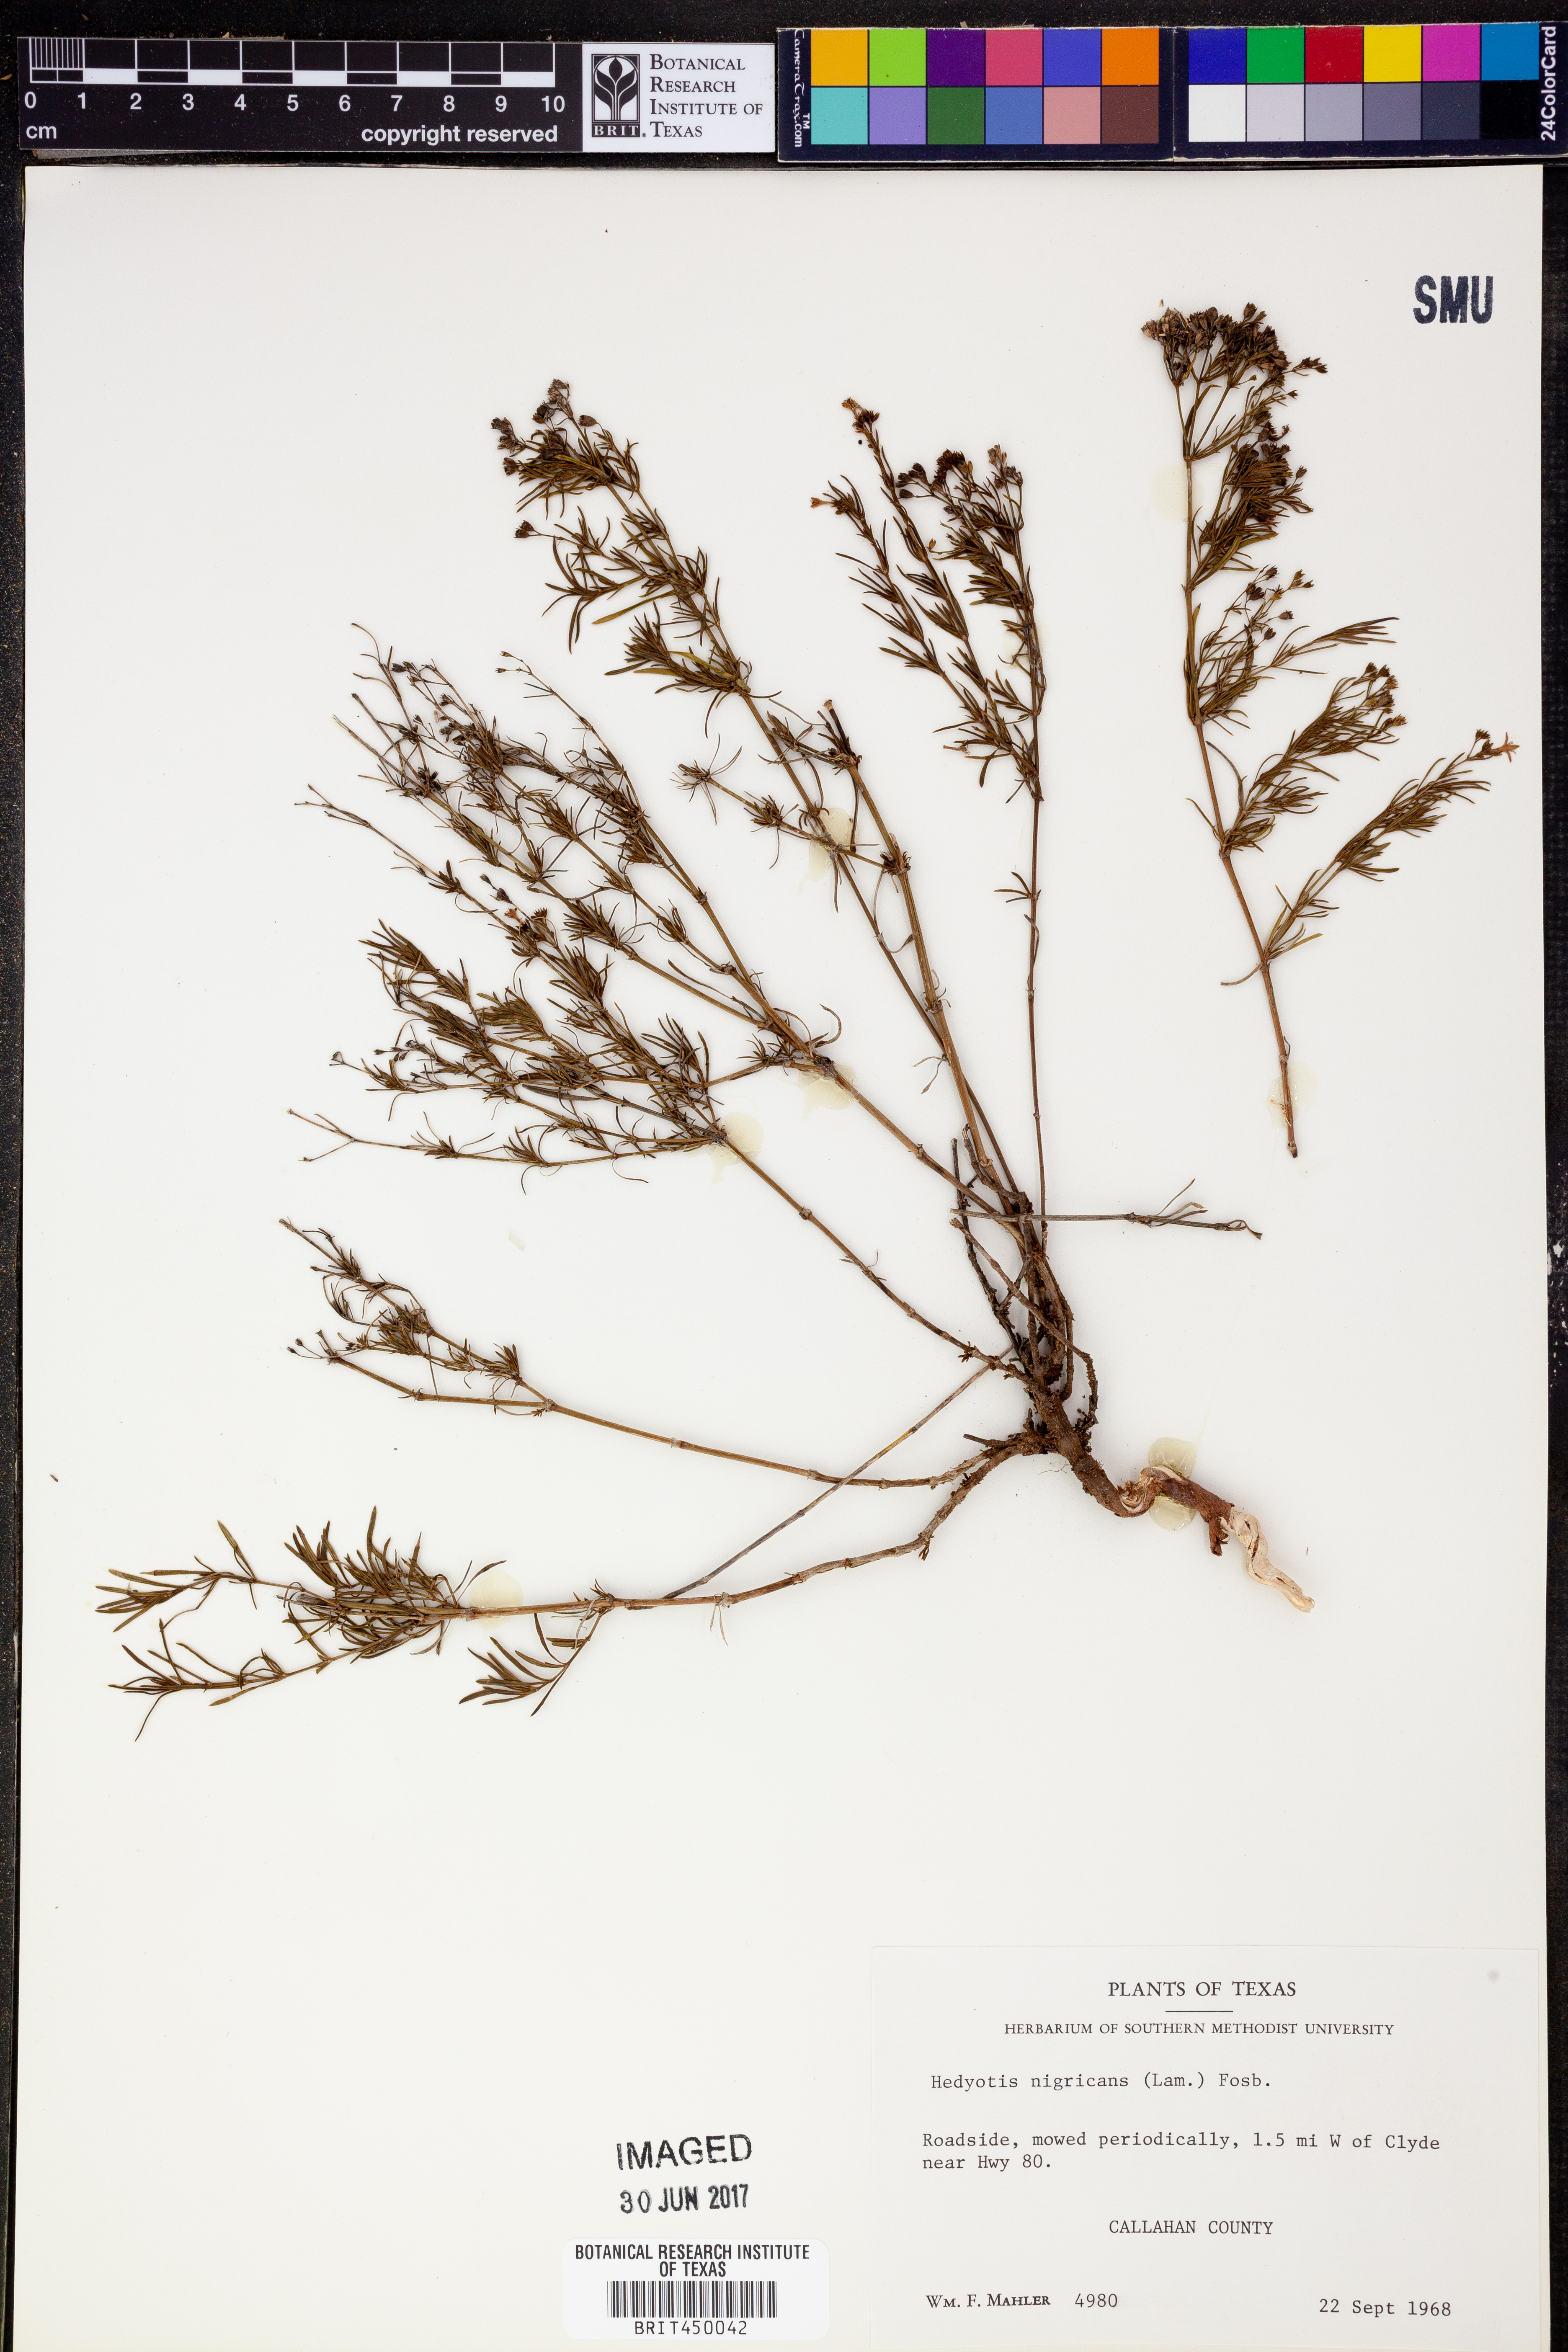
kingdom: Plantae
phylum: Tracheophyta
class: Magnoliopsida
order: Gentianales
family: Rubiaceae
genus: Stenaria
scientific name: Stenaria nigricans
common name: Diamondflowers
